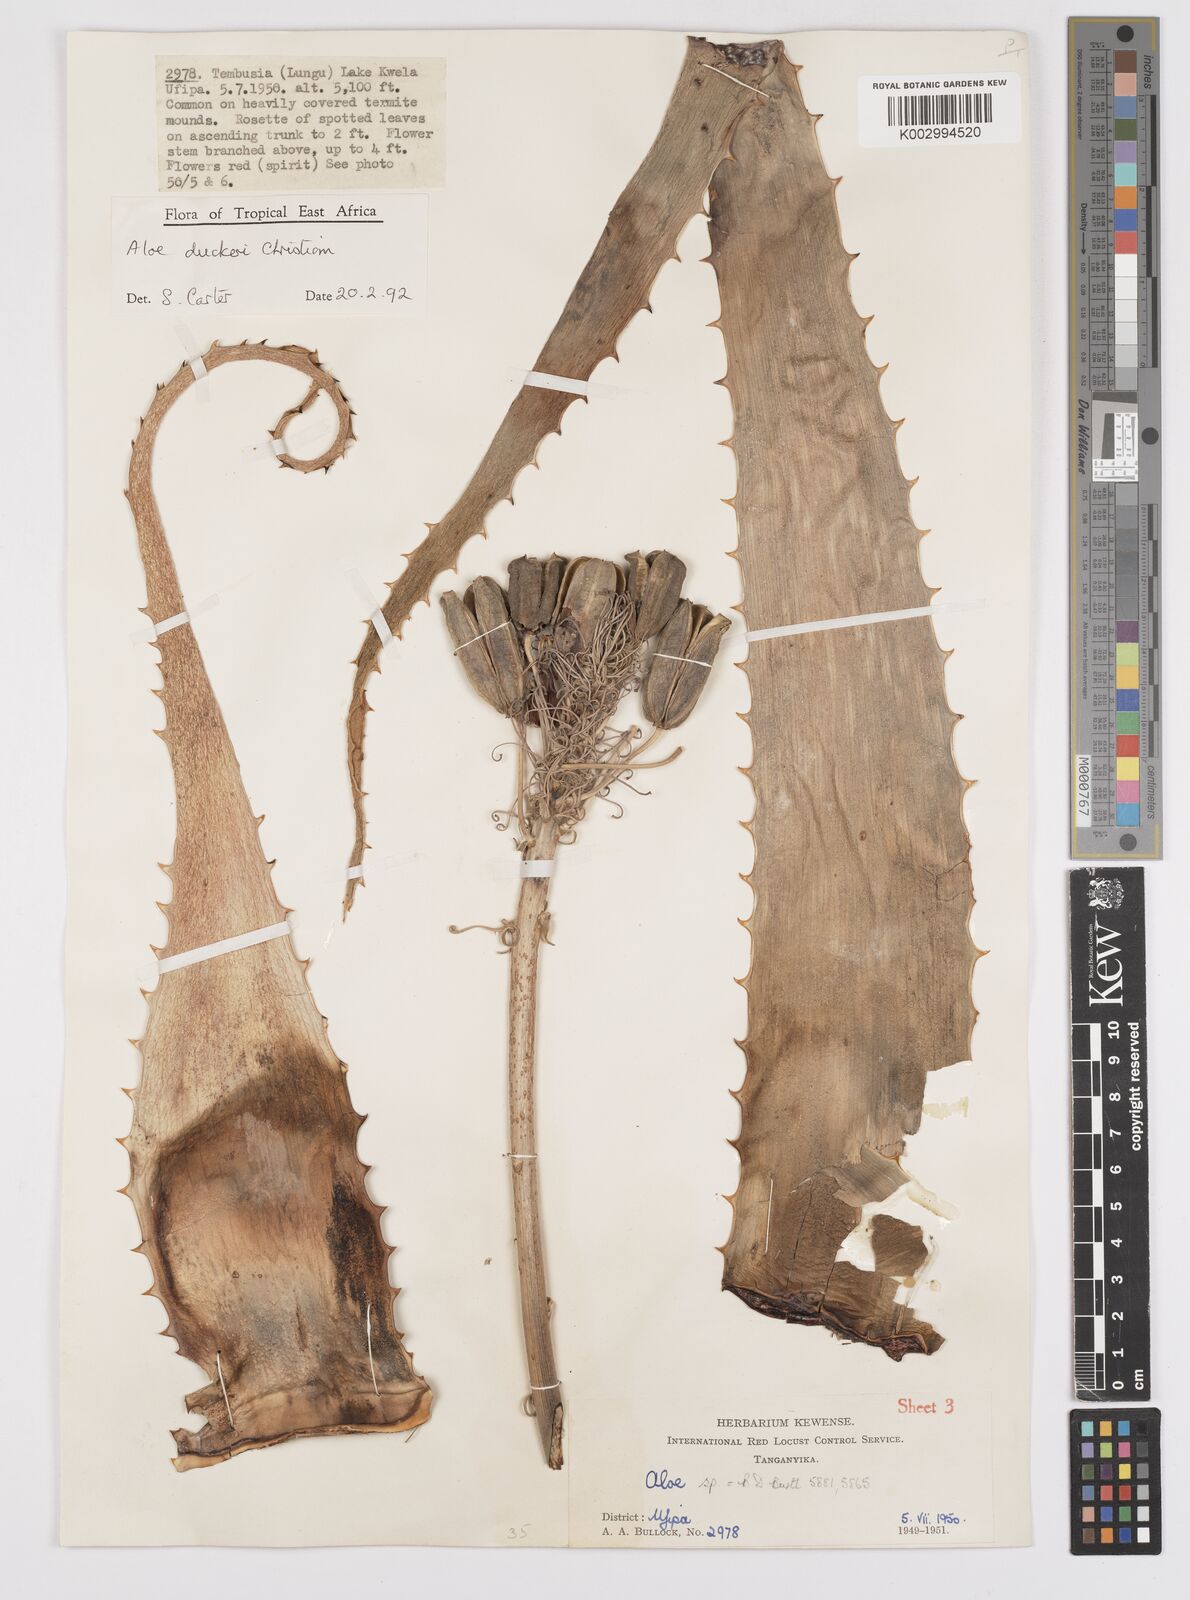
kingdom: Plantae
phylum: Tracheophyta
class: Liliopsida
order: Asparagales
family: Asphodelaceae
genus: Aloe
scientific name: Aloe duckeri
